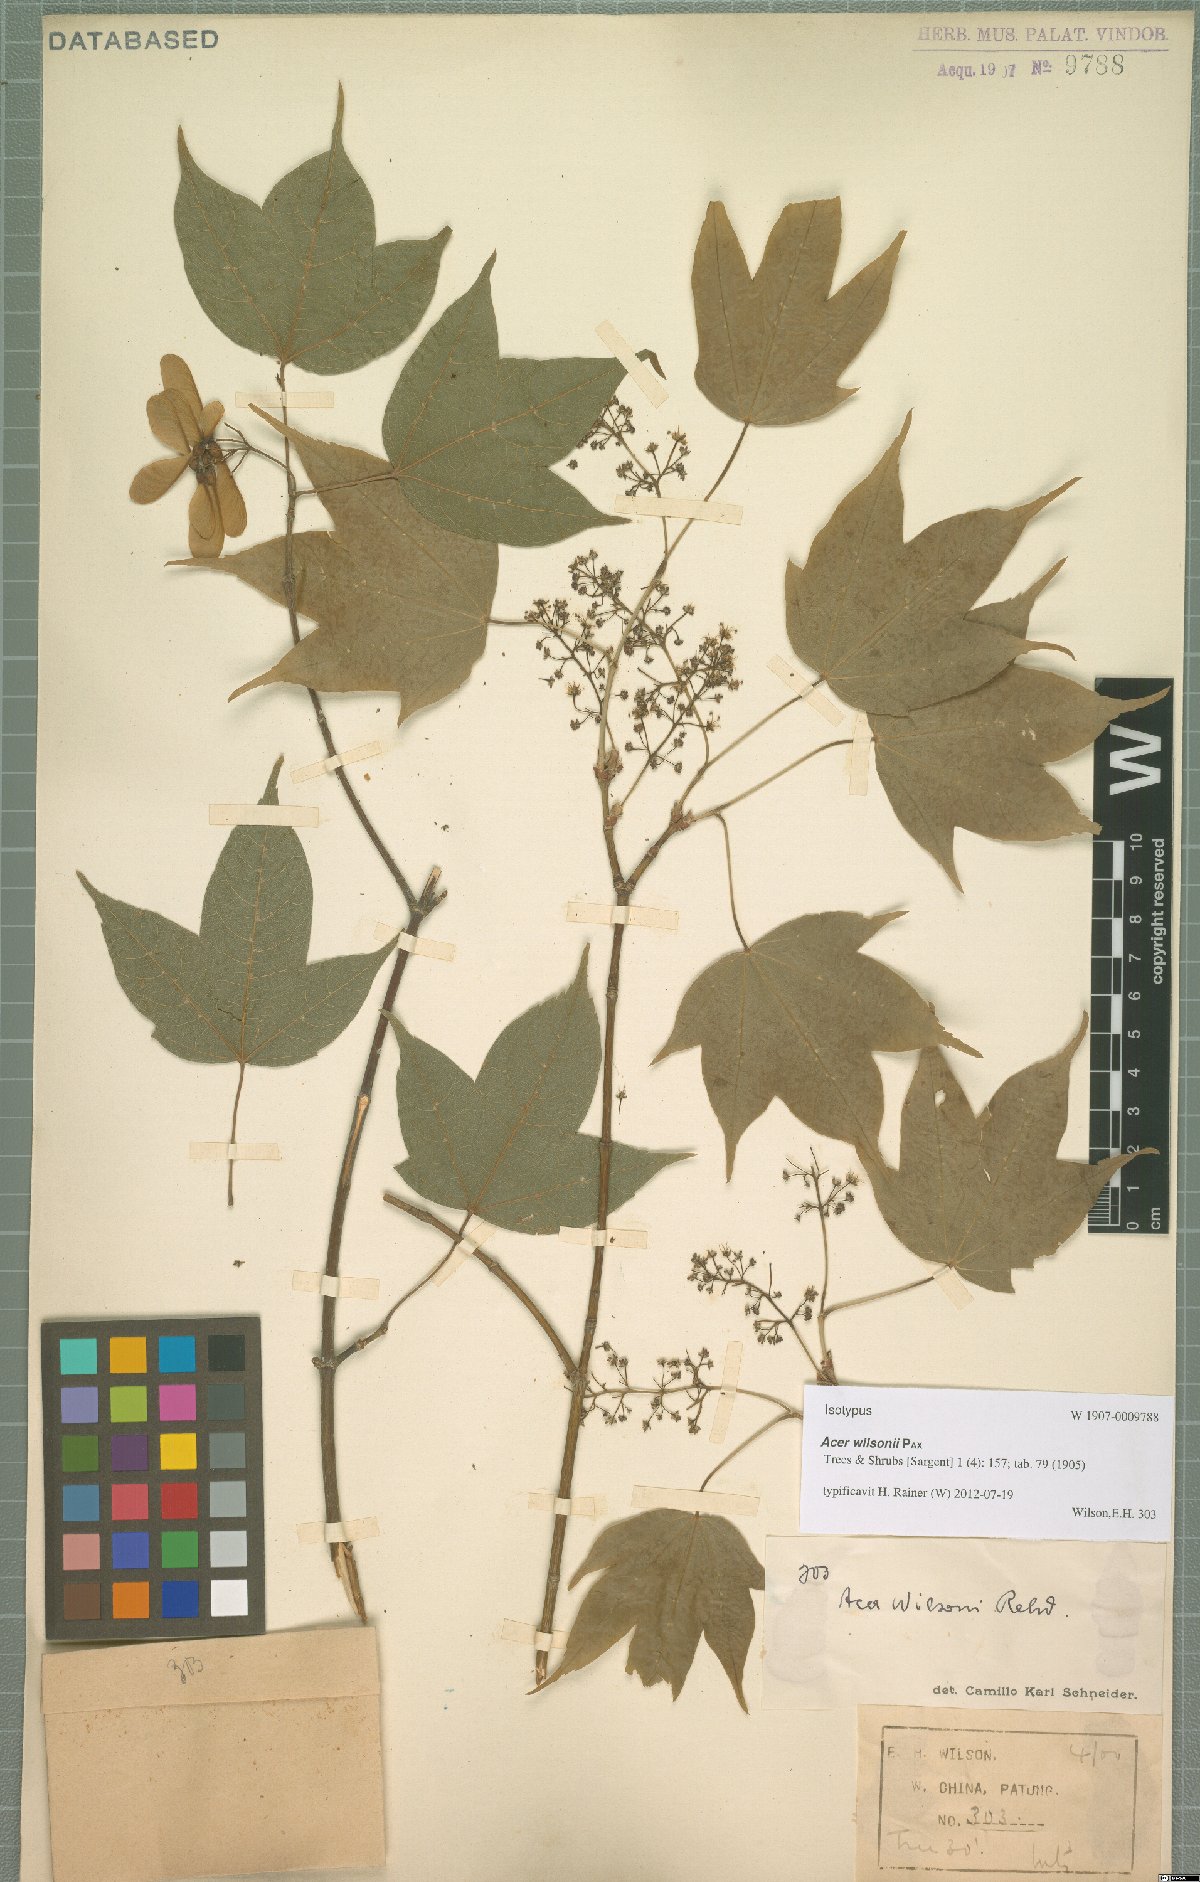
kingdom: Plantae
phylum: Tracheophyta
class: Magnoliopsida
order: Sapindales
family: Sapindaceae
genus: Acer
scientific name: Acer wilsonii
